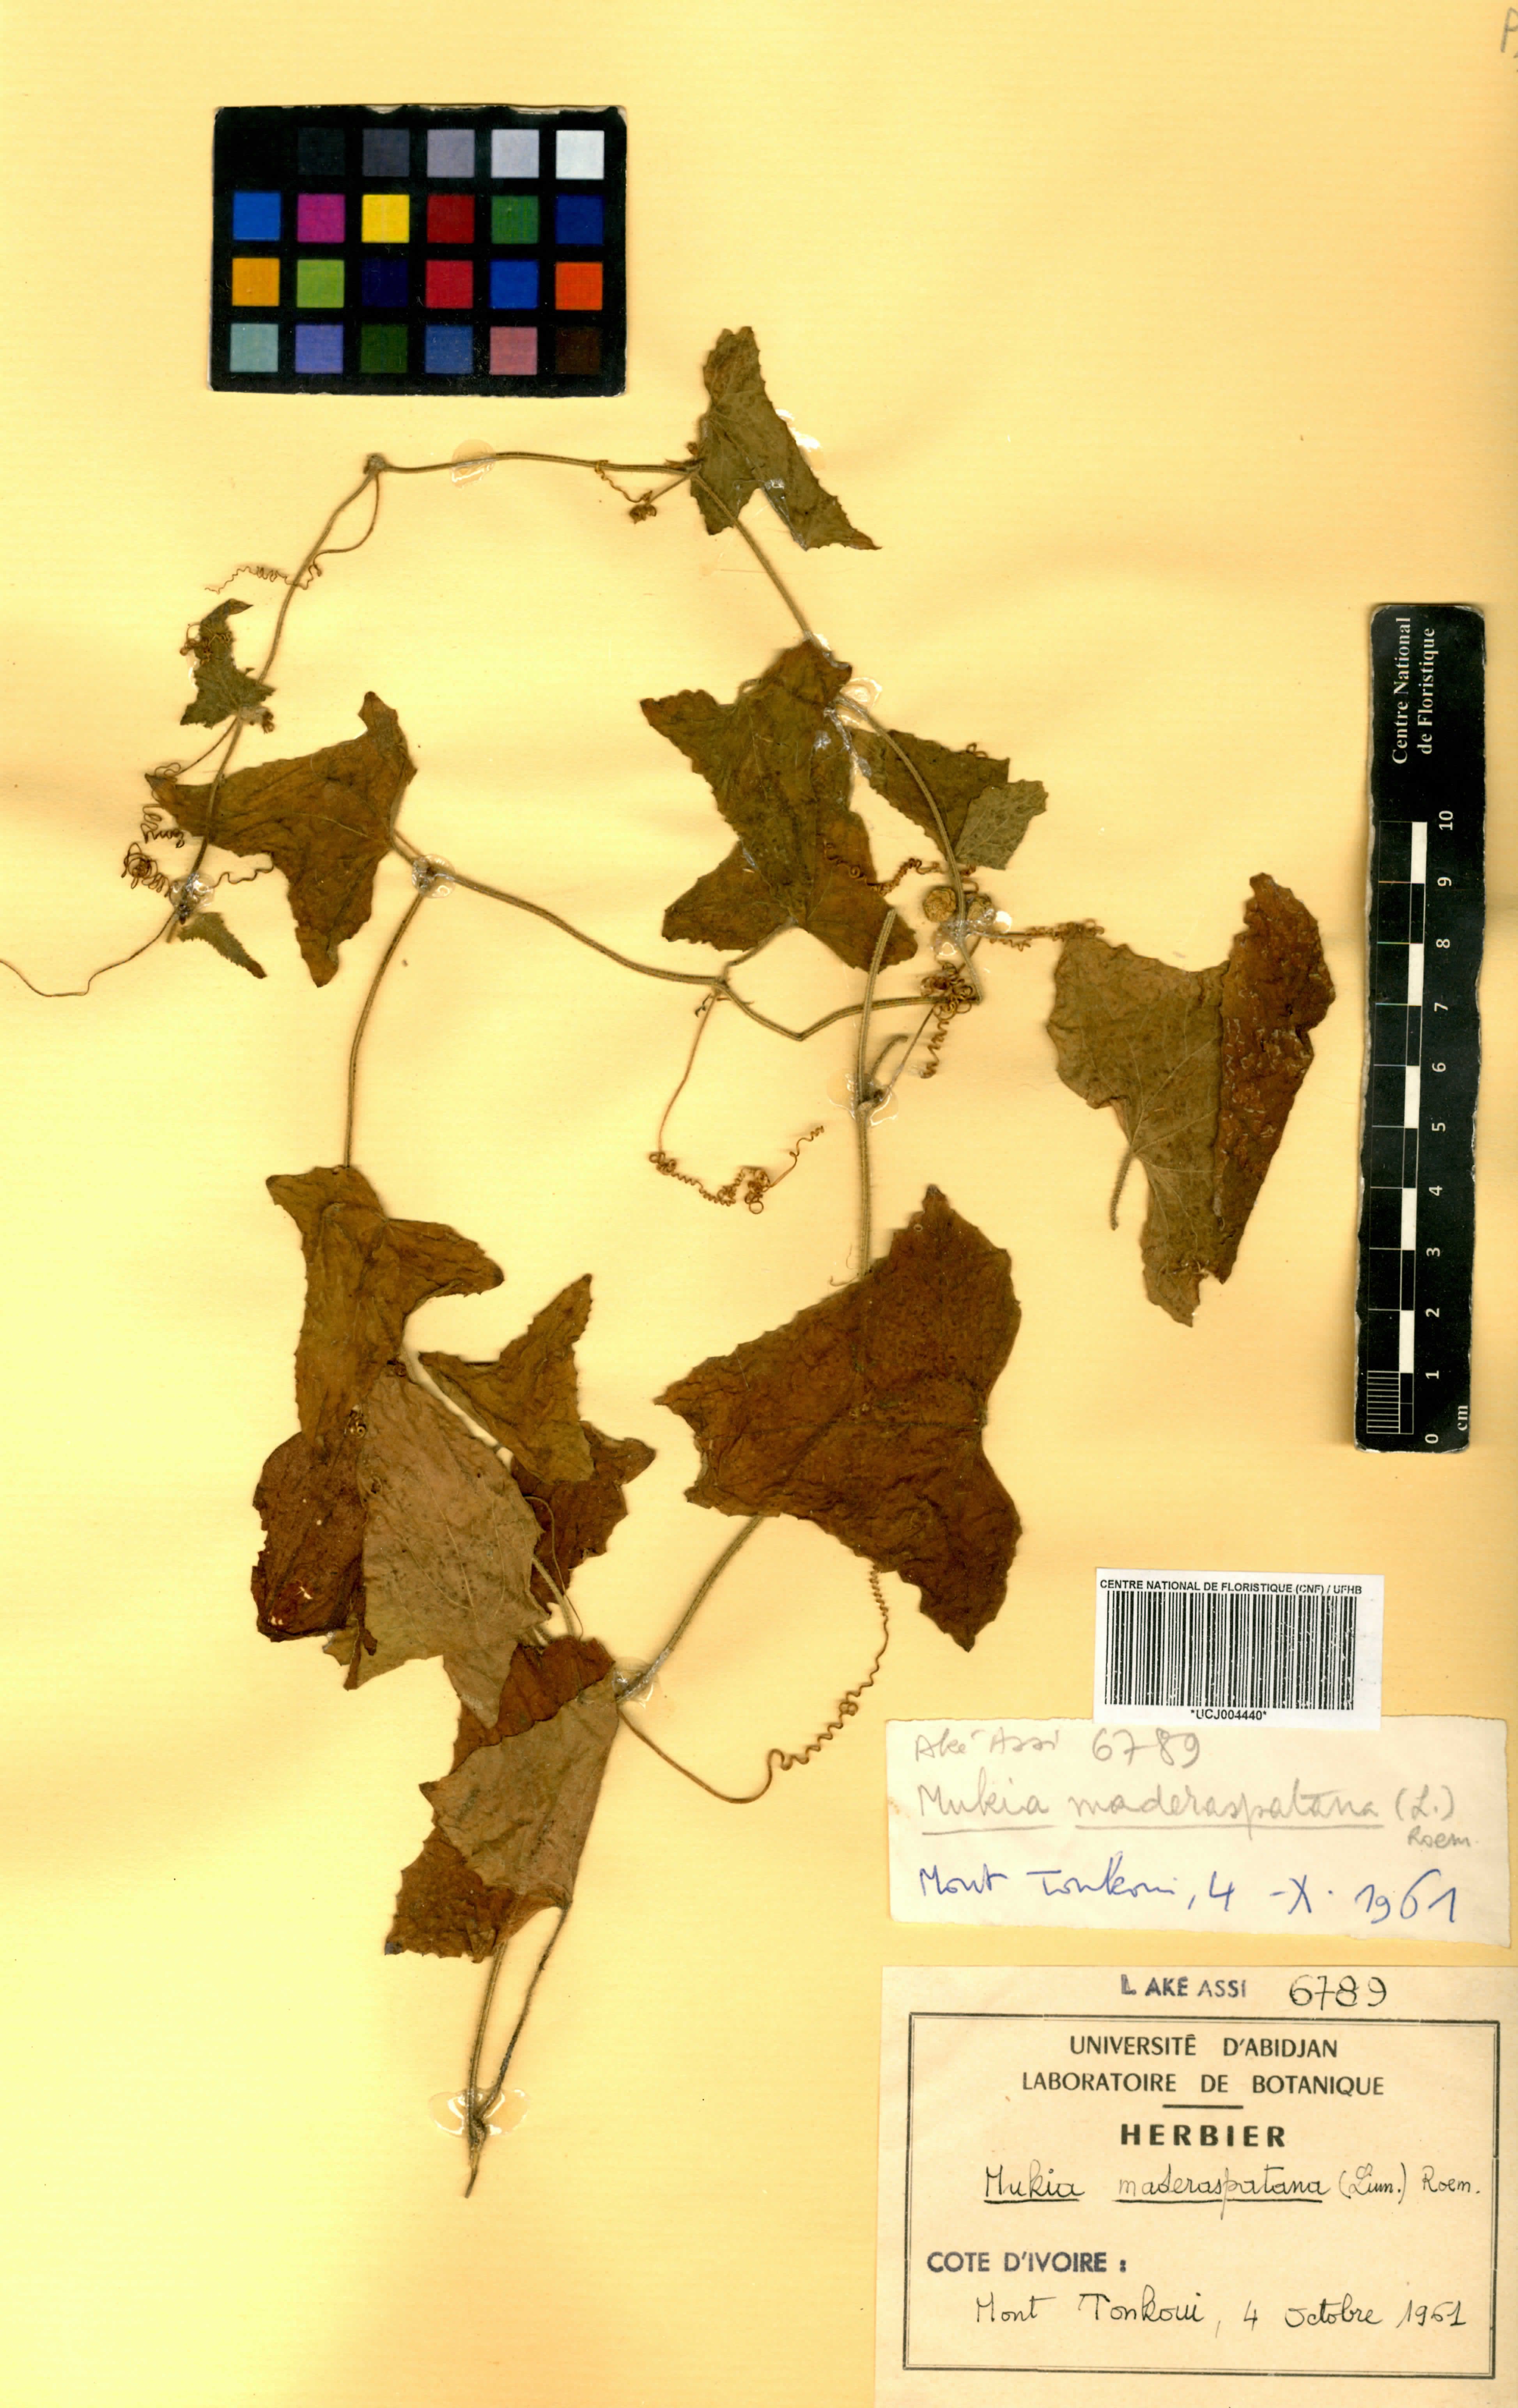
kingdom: Plantae
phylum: Tracheophyta
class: Magnoliopsida
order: Cucurbitales
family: Cucurbitaceae
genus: Cucumis
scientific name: Cucumis maderaspatanus
